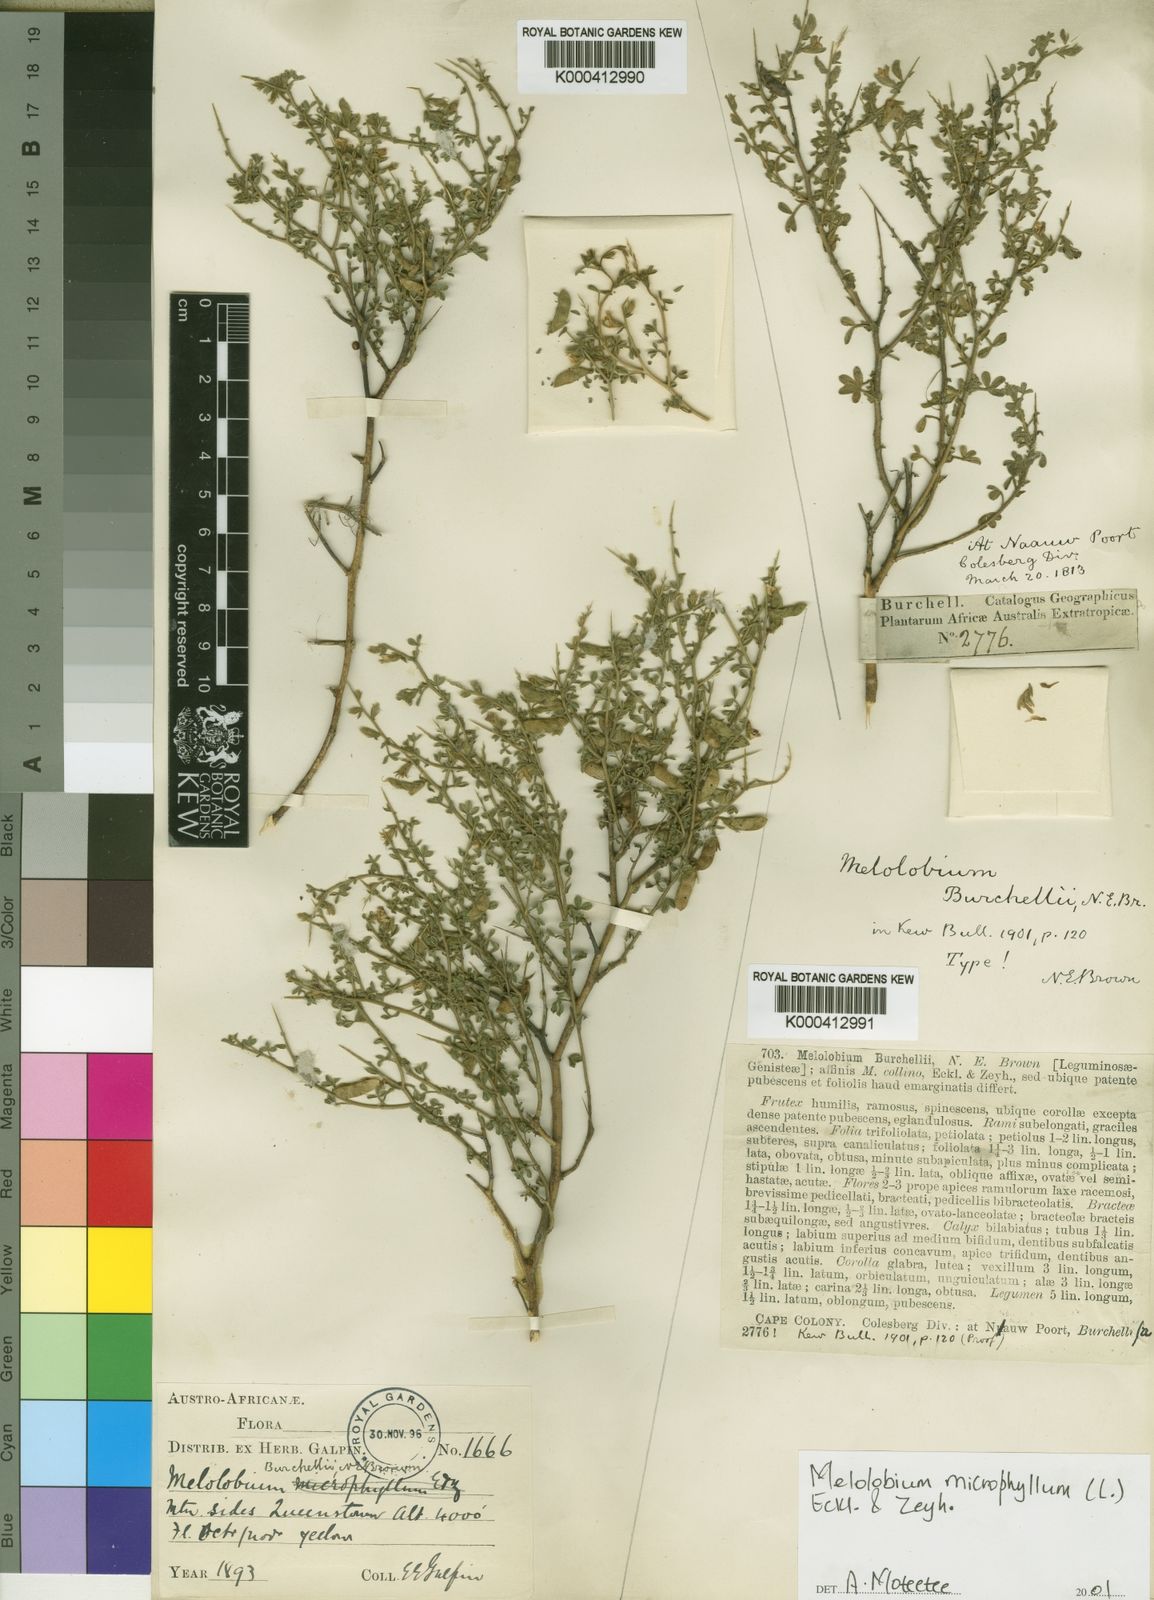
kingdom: Plantae
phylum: Tracheophyta
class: Magnoliopsida
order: Fabales
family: Fabaceae
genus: Melolobium
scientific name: Melolobium microphyllum
